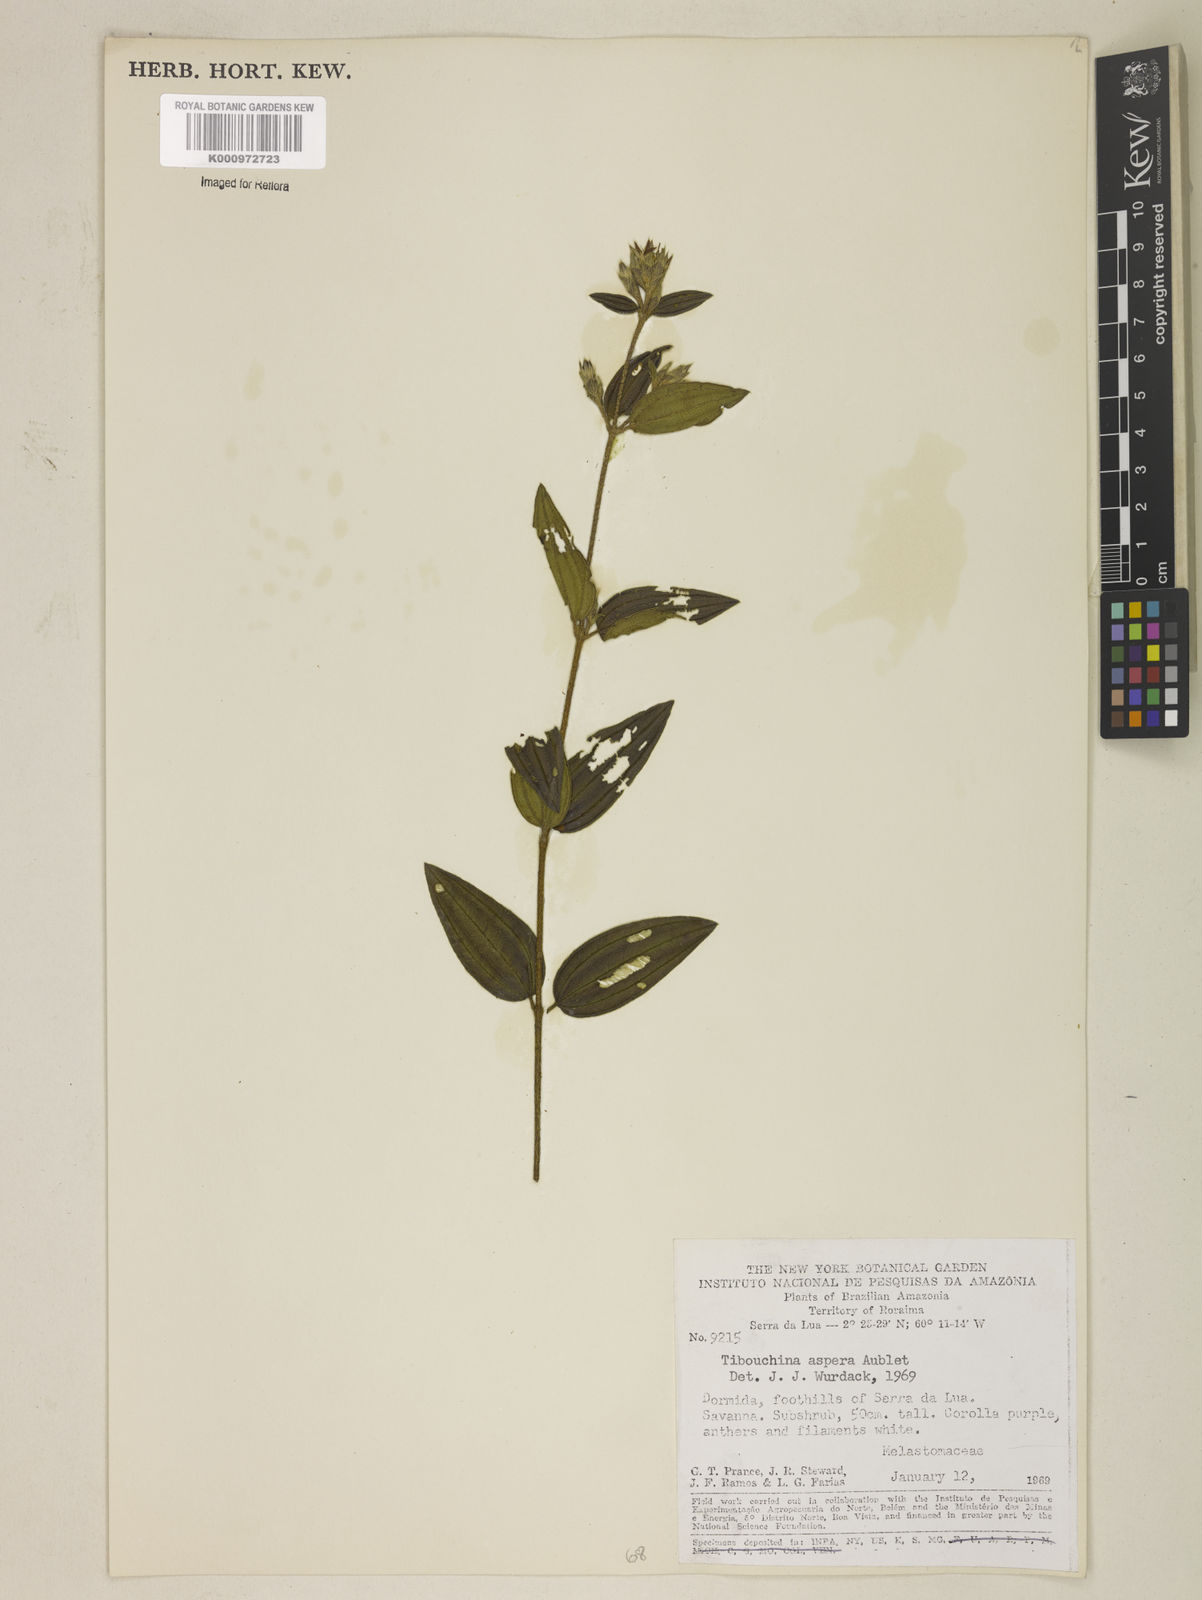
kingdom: Plantae
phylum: Tracheophyta
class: Magnoliopsida
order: Myrtales
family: Melastomataceae
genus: Tibouchina
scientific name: Tibouchina aspera
